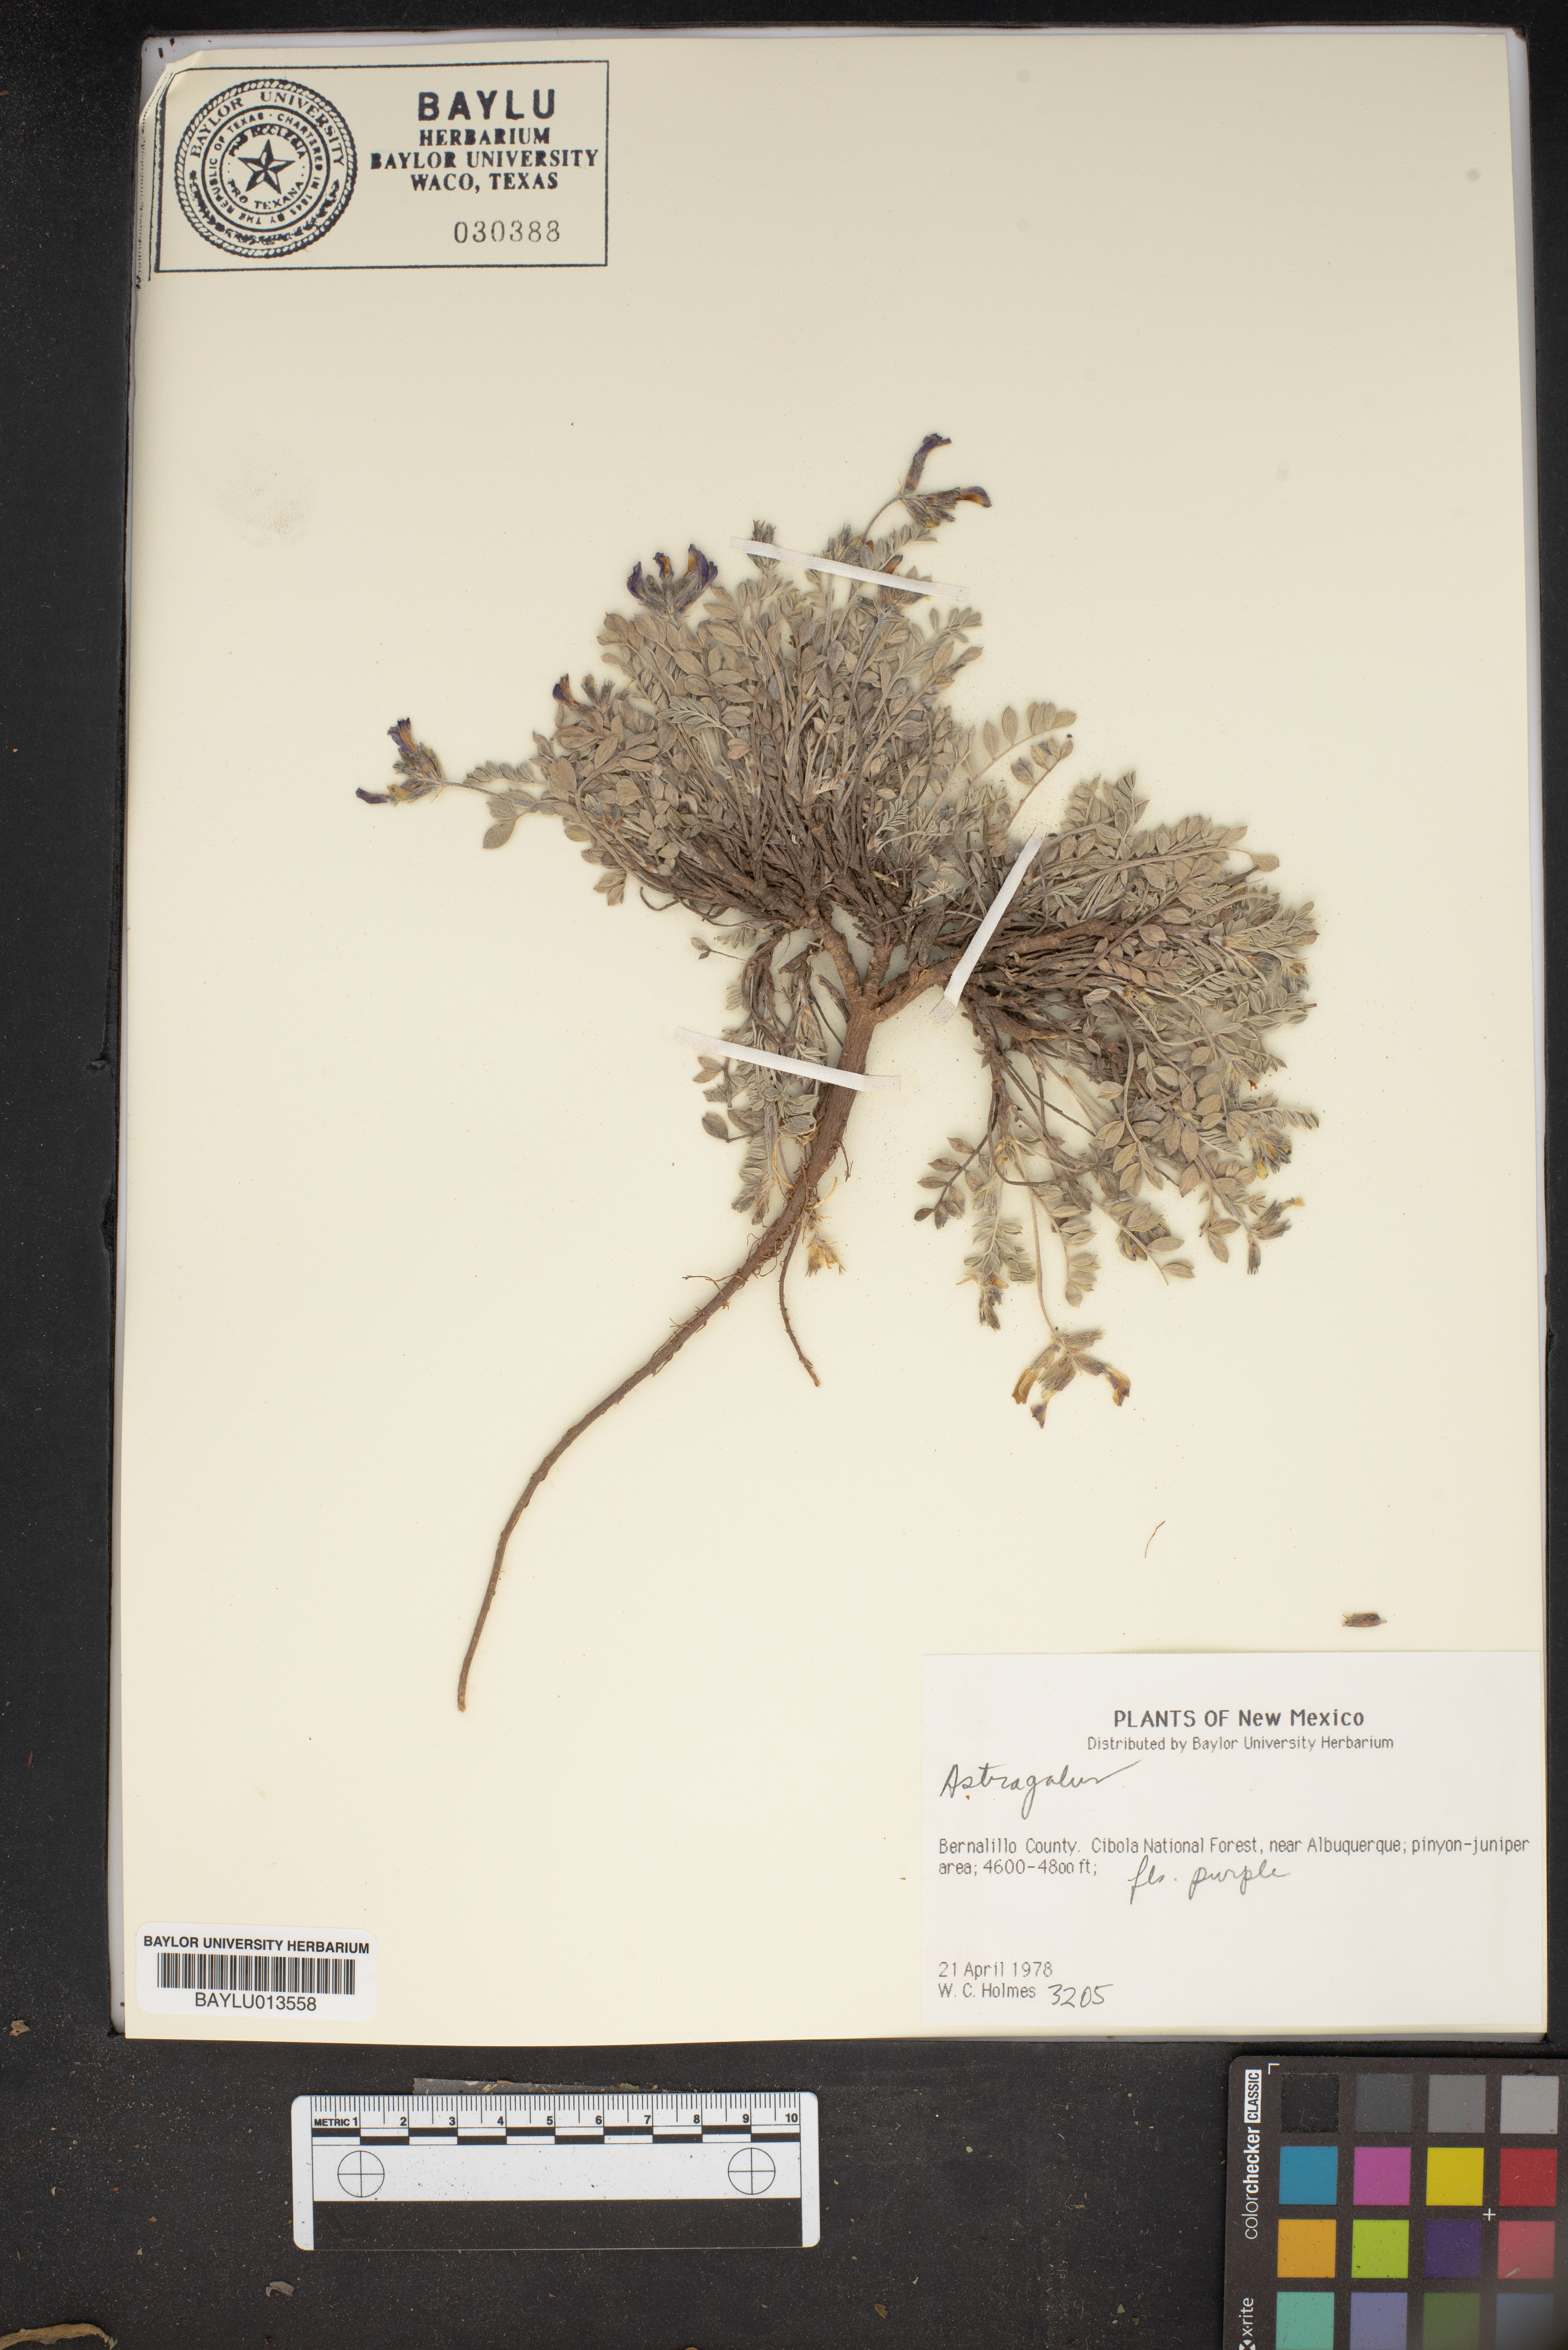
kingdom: Plantae
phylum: Tracheophyta
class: Magnoliopsida
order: Fabales
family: Fabaceae
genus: Astragalus
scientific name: Astragalus
